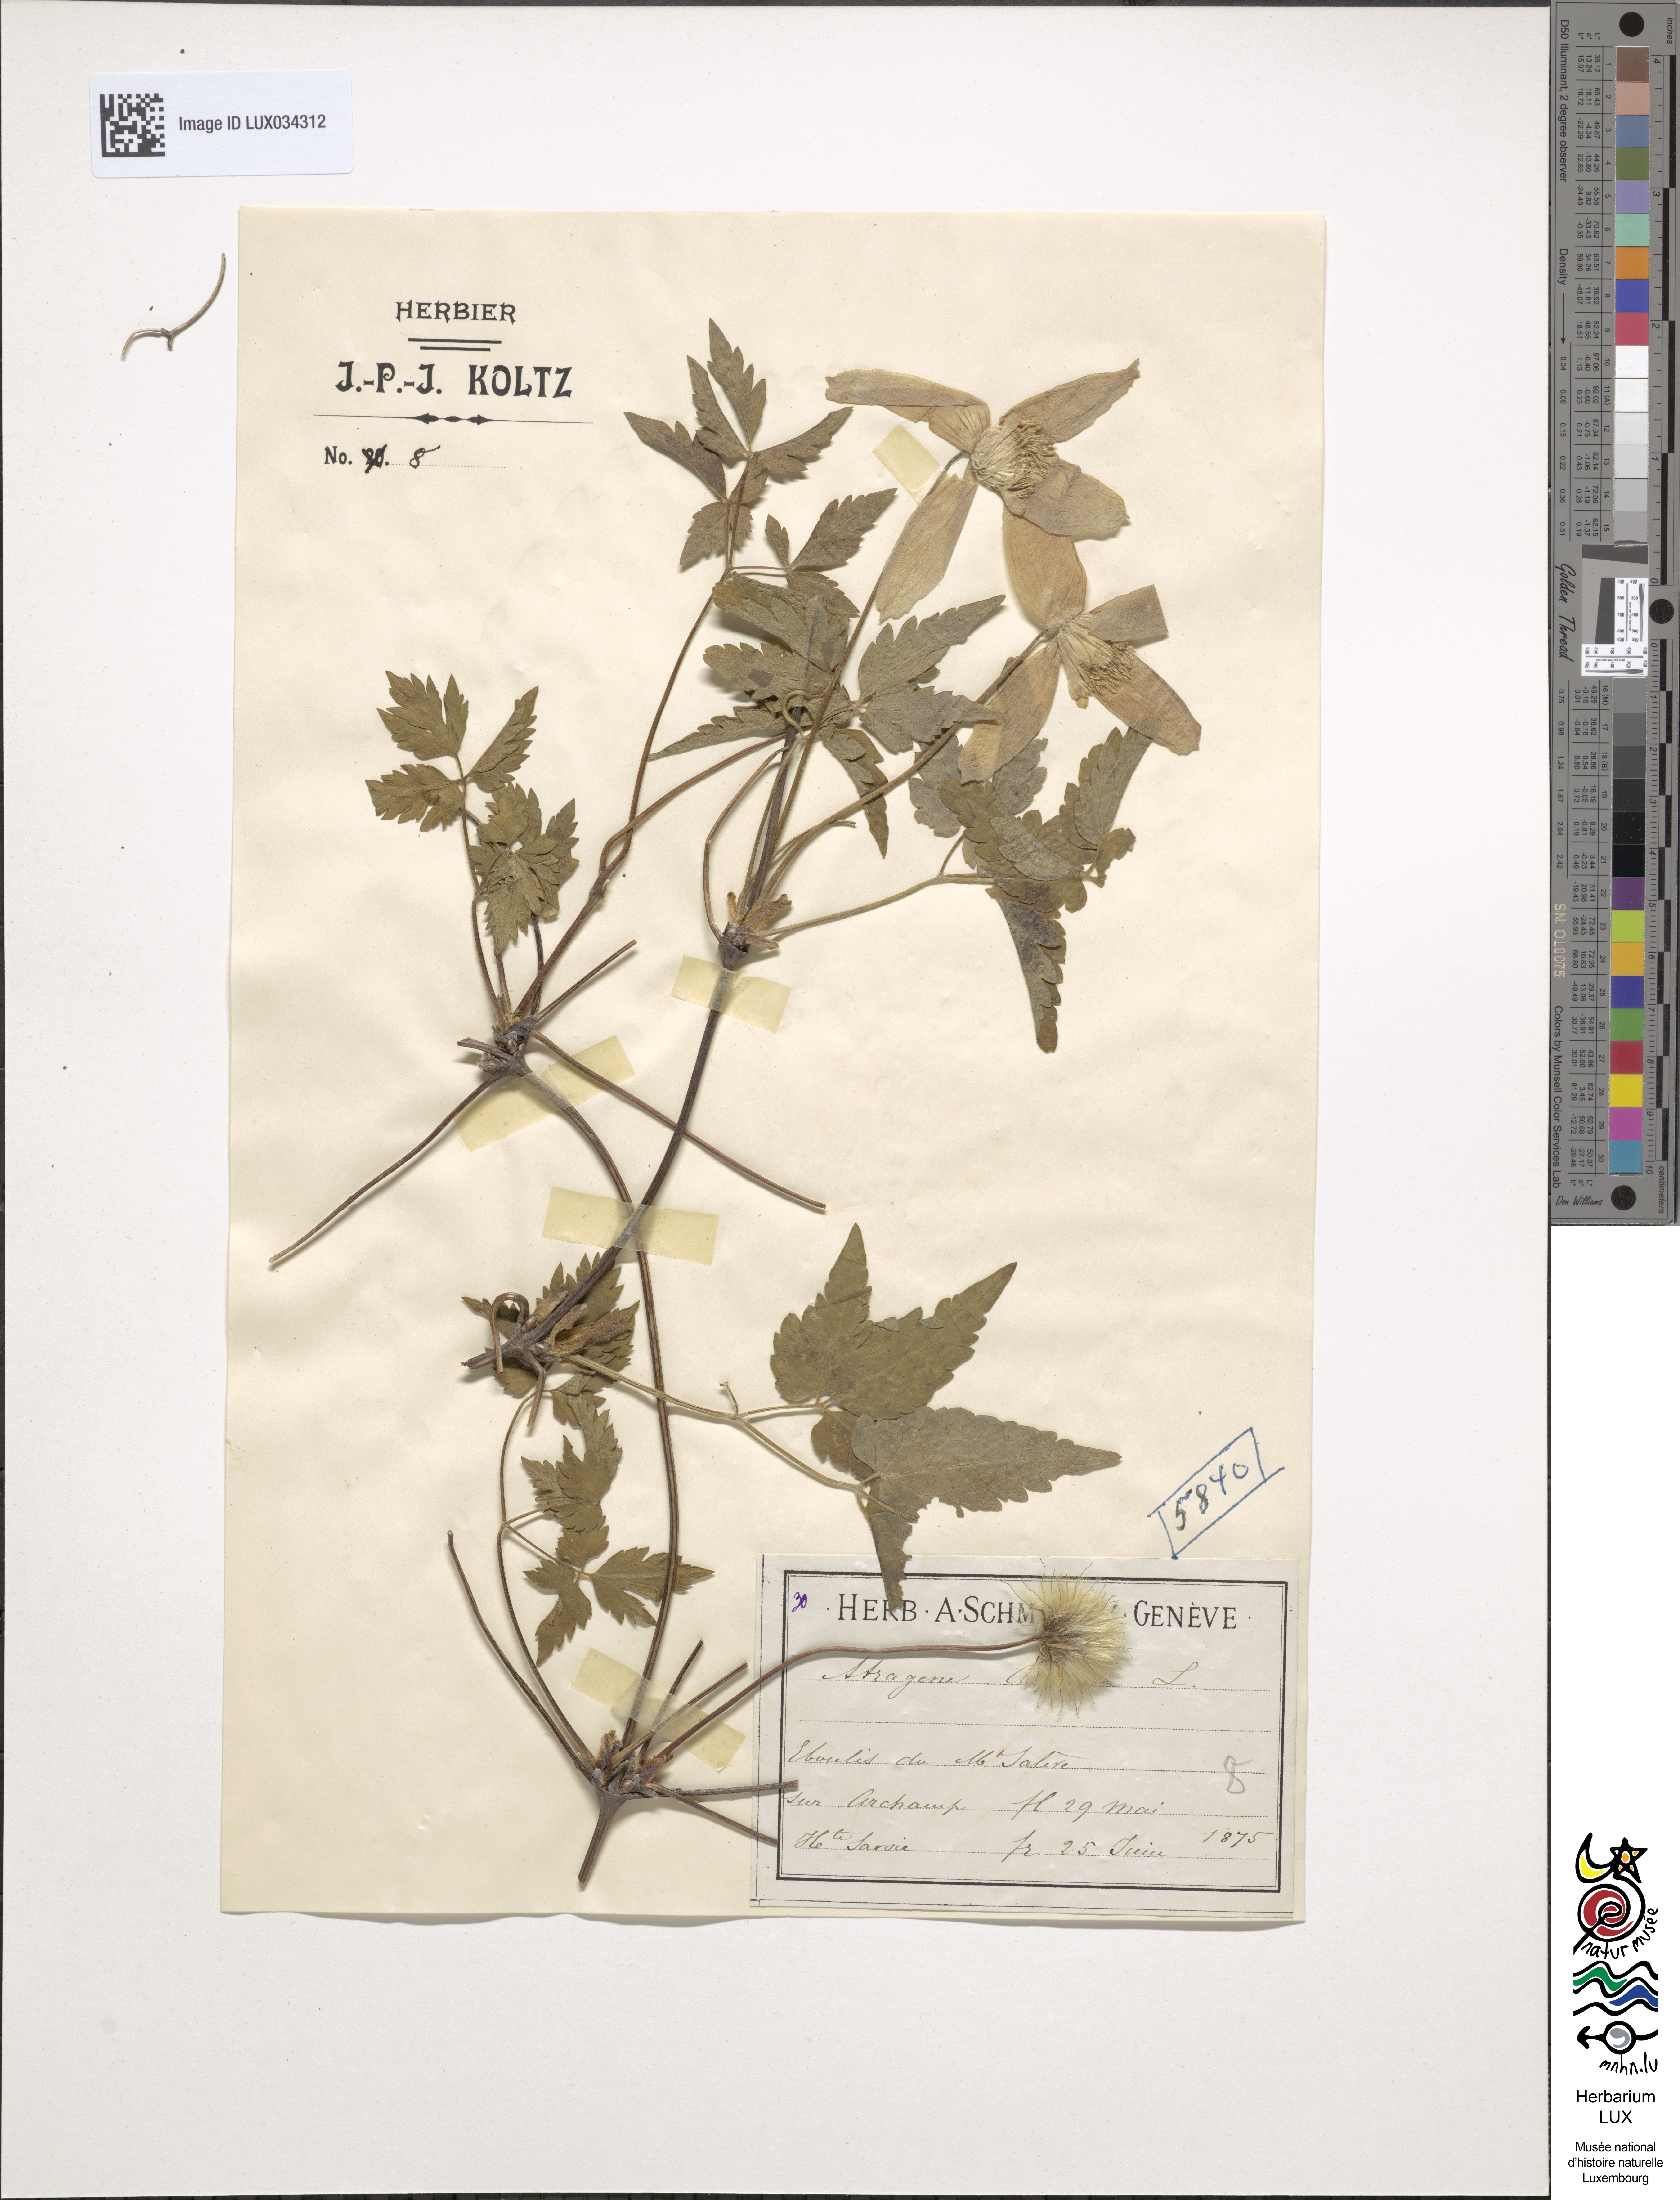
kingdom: Plantae
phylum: Tracheophyta
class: Magnoliopsida
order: Ranunculales
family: Ranunculaceae
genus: Clematis
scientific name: Clematis alpina
